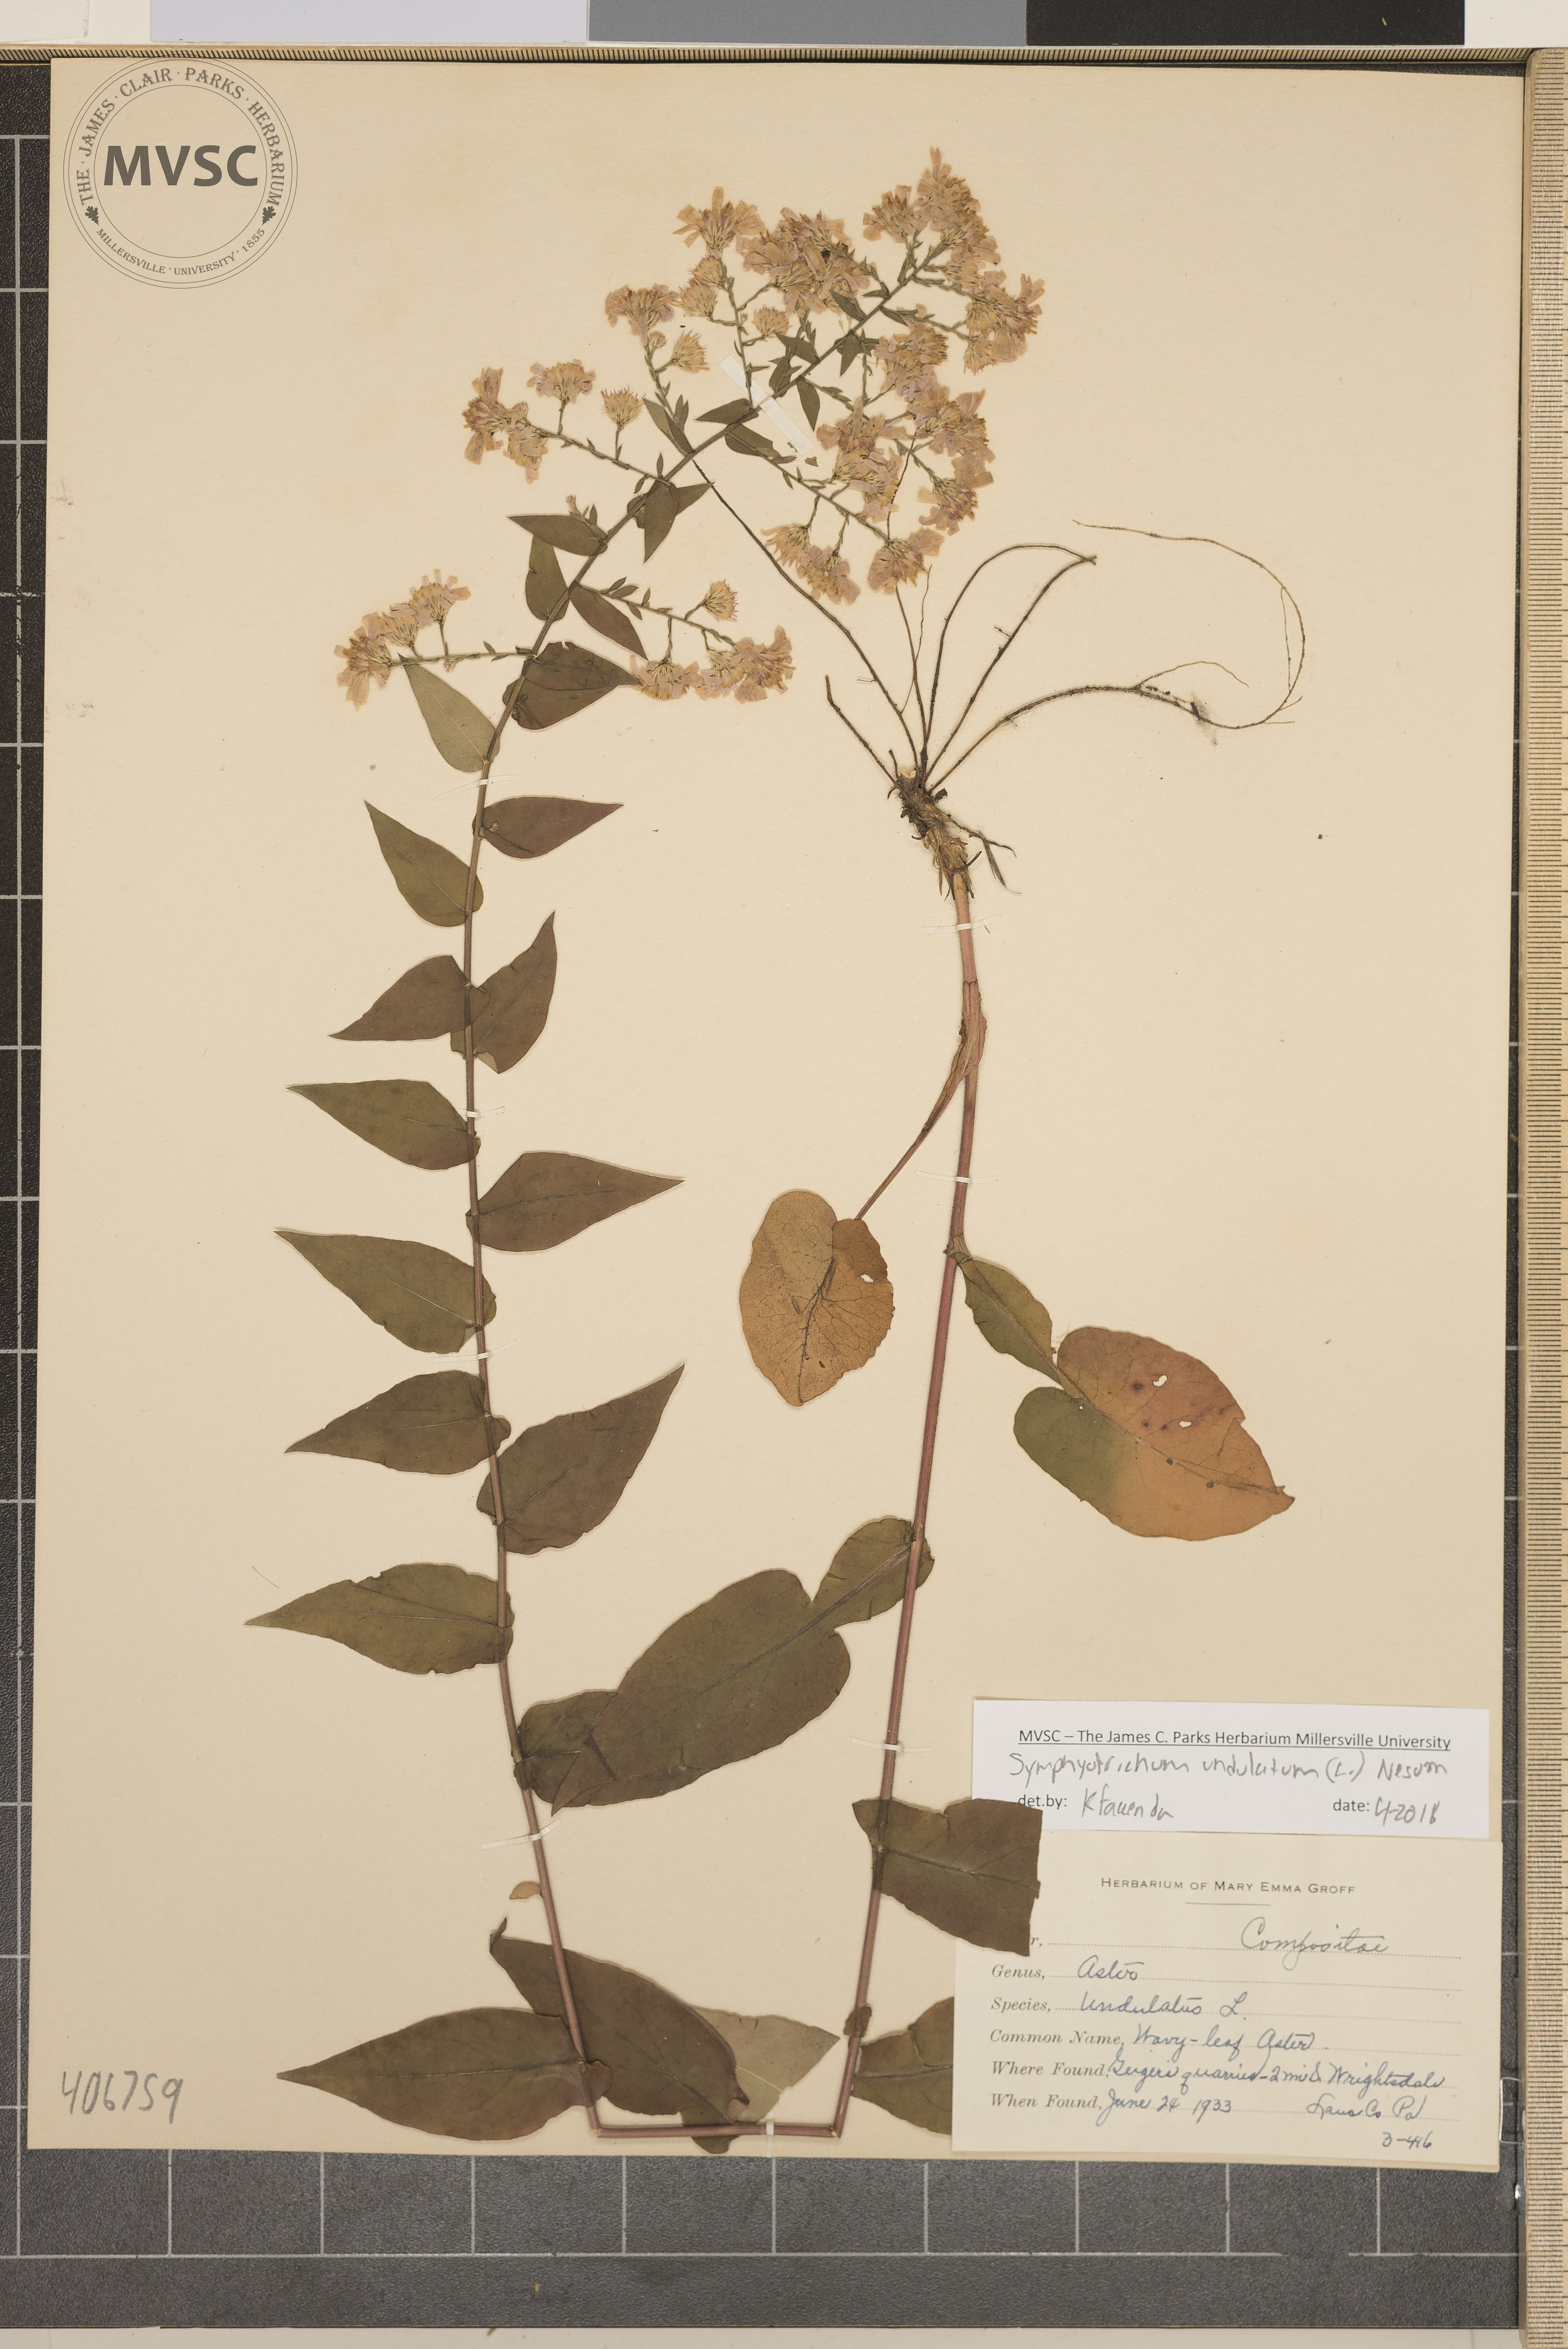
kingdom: Plantae
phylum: Tracheophyta
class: Magnoliopsida
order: Asterales
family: Asteraceae
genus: Symphyotrichum
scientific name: Symphyotrichum undulatum
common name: Wavy-leaf Aster
